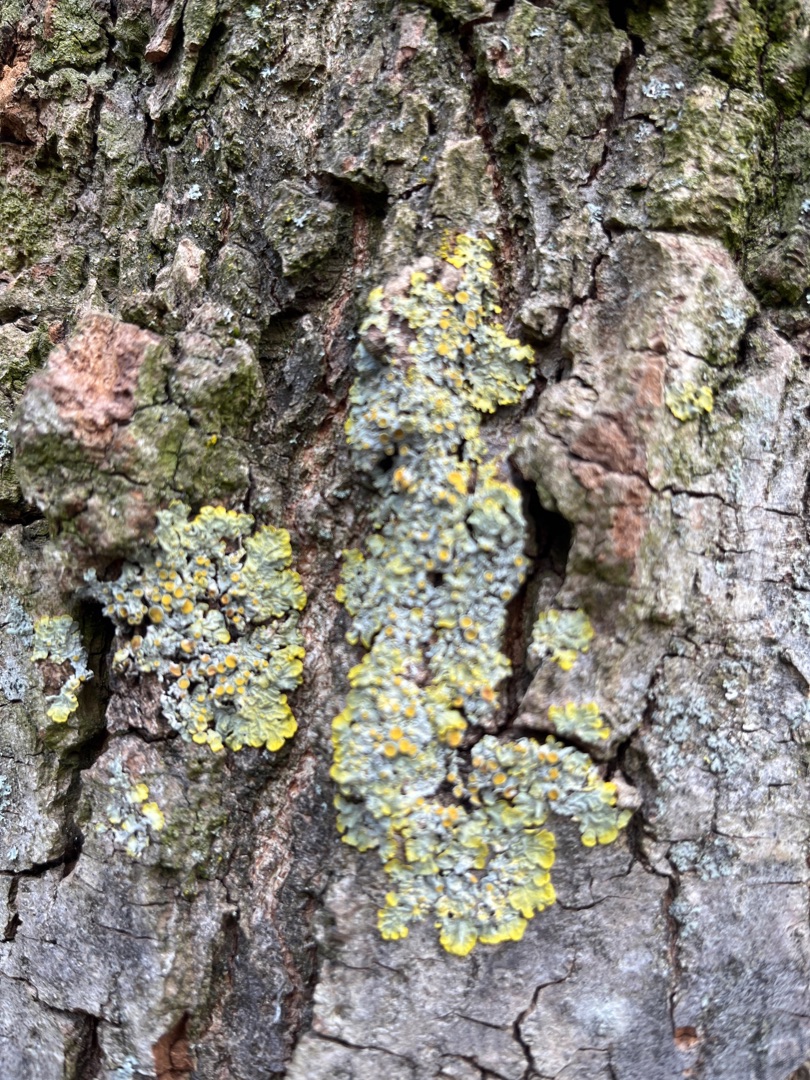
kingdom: Fungi
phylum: Ascomycota
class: Lecanoromycetes
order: Teloschistales
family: Teloschistaceae
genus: Xanthoria
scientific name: Xanthoria parietina
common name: Almindelig væggelav
